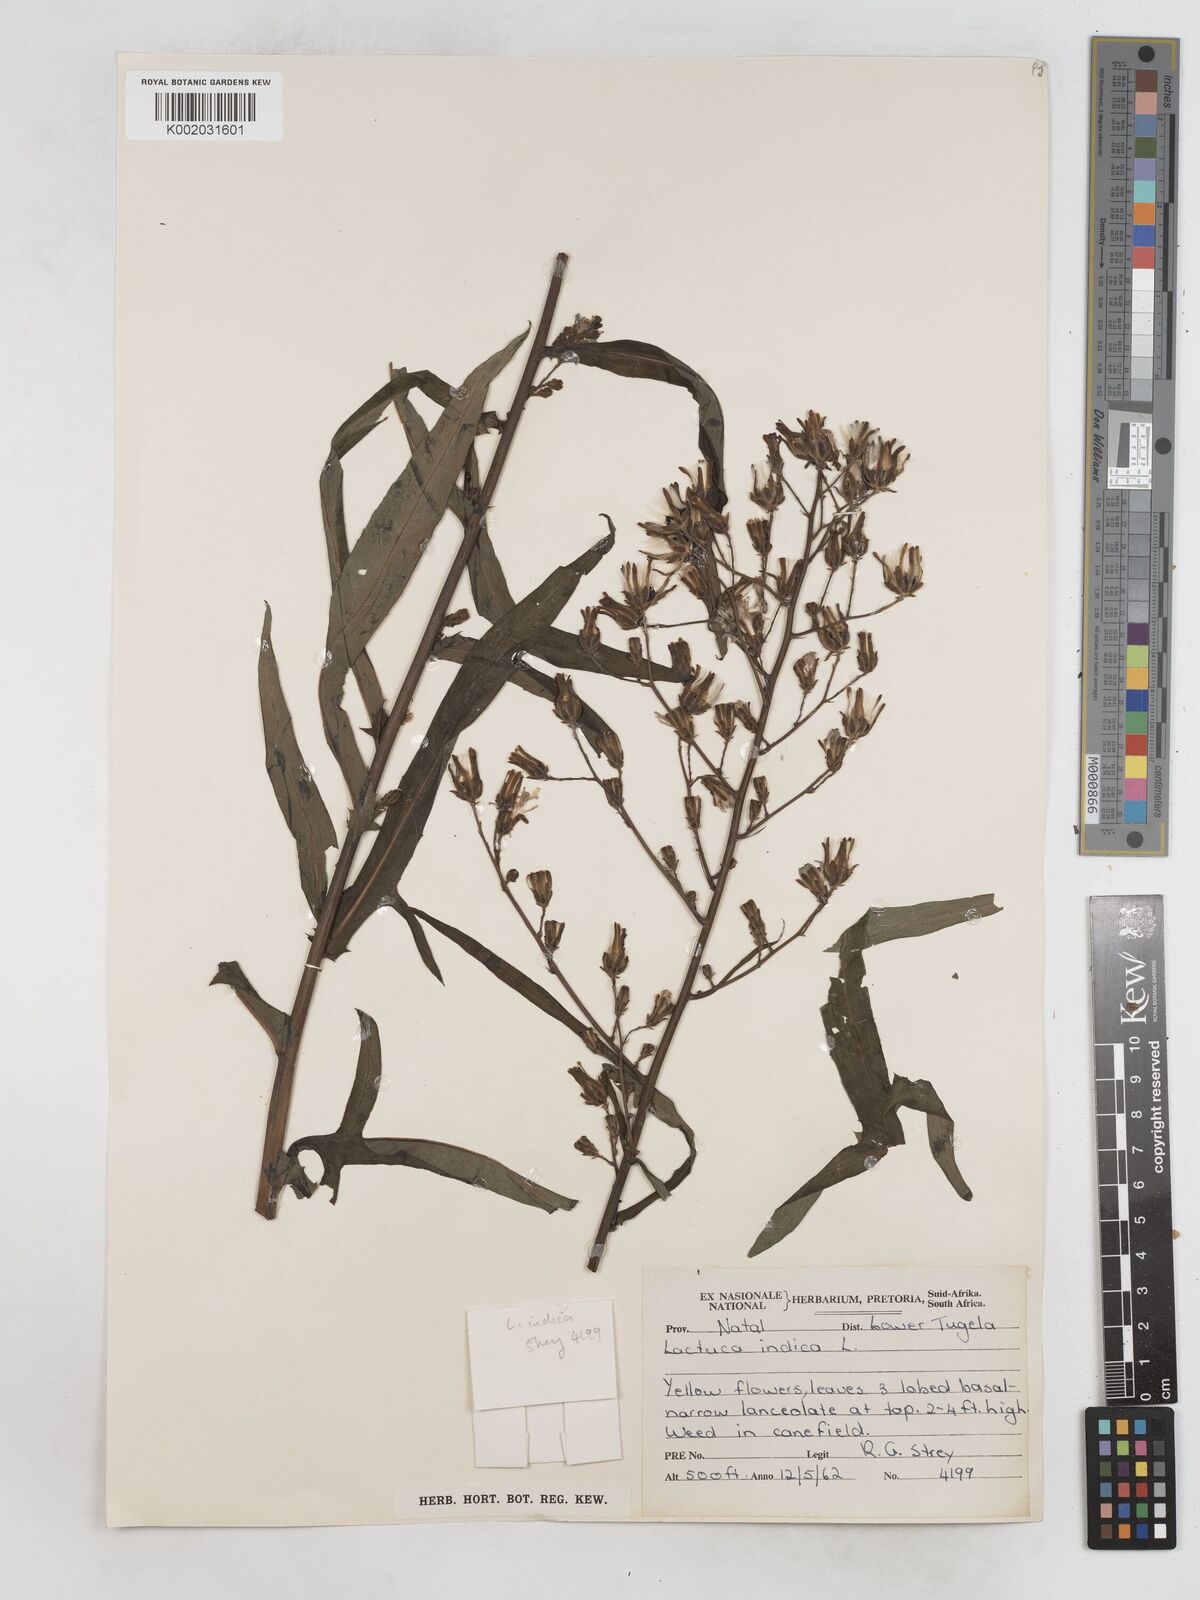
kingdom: Plantae
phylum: Tracheophyta
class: Magnoliopsida
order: Asterales
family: Asteraceae
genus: Lactuca
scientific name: Lactuca indica
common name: Wild lettuce
